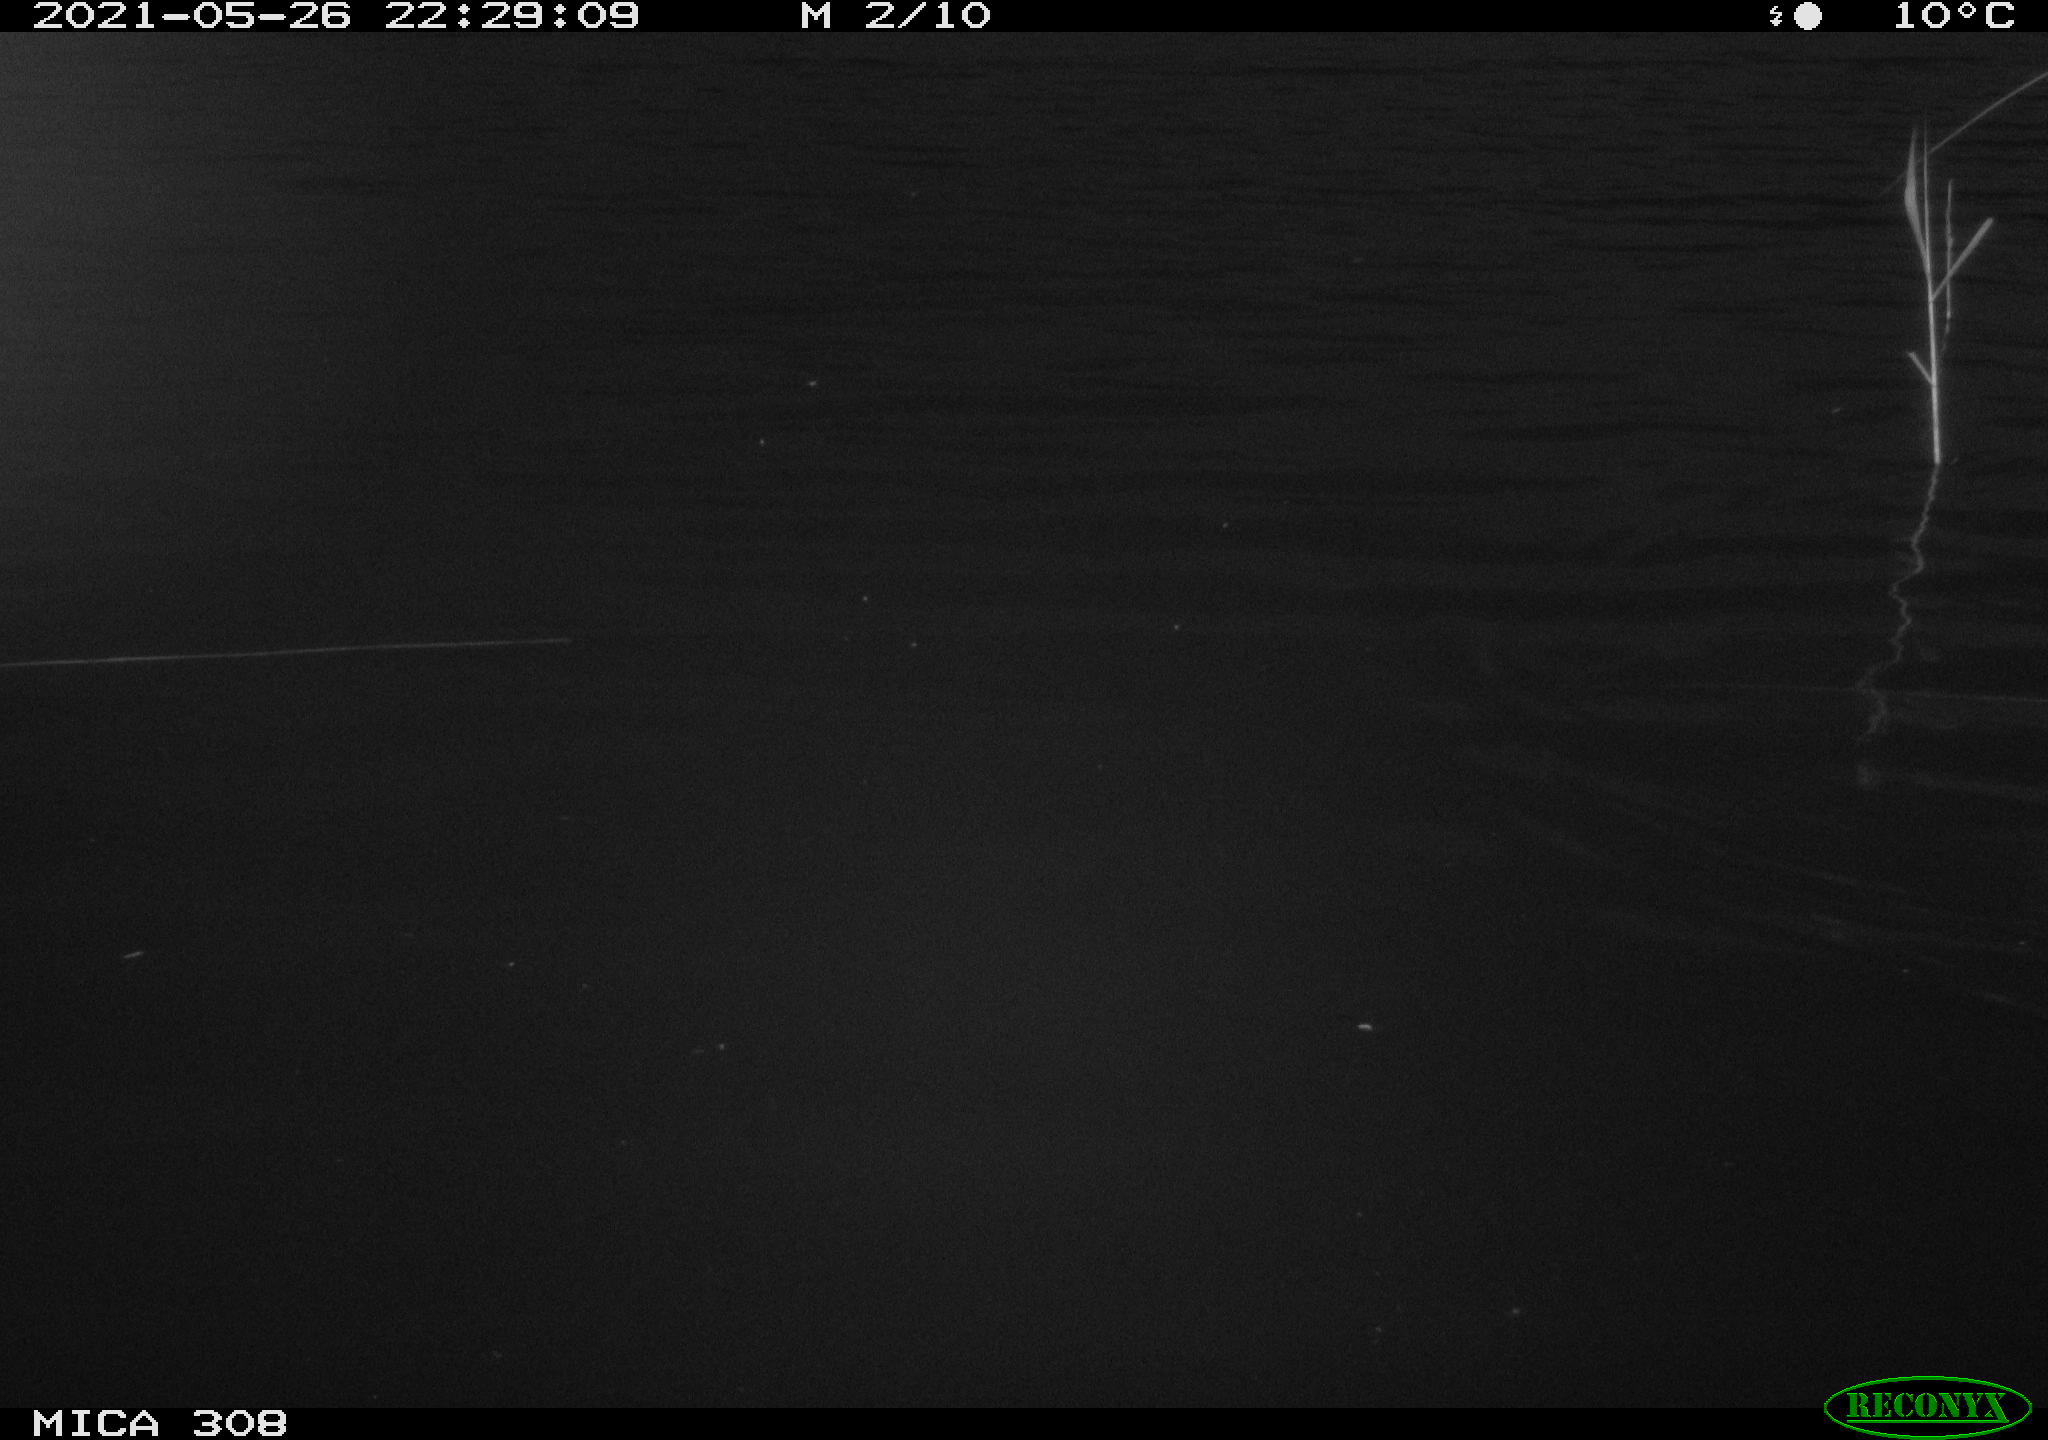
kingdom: Animalia
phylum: Chordata
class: Aves
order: Anseriformes
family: Anatidae
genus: Anas
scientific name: Anas platyrhynchos
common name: Mallard
